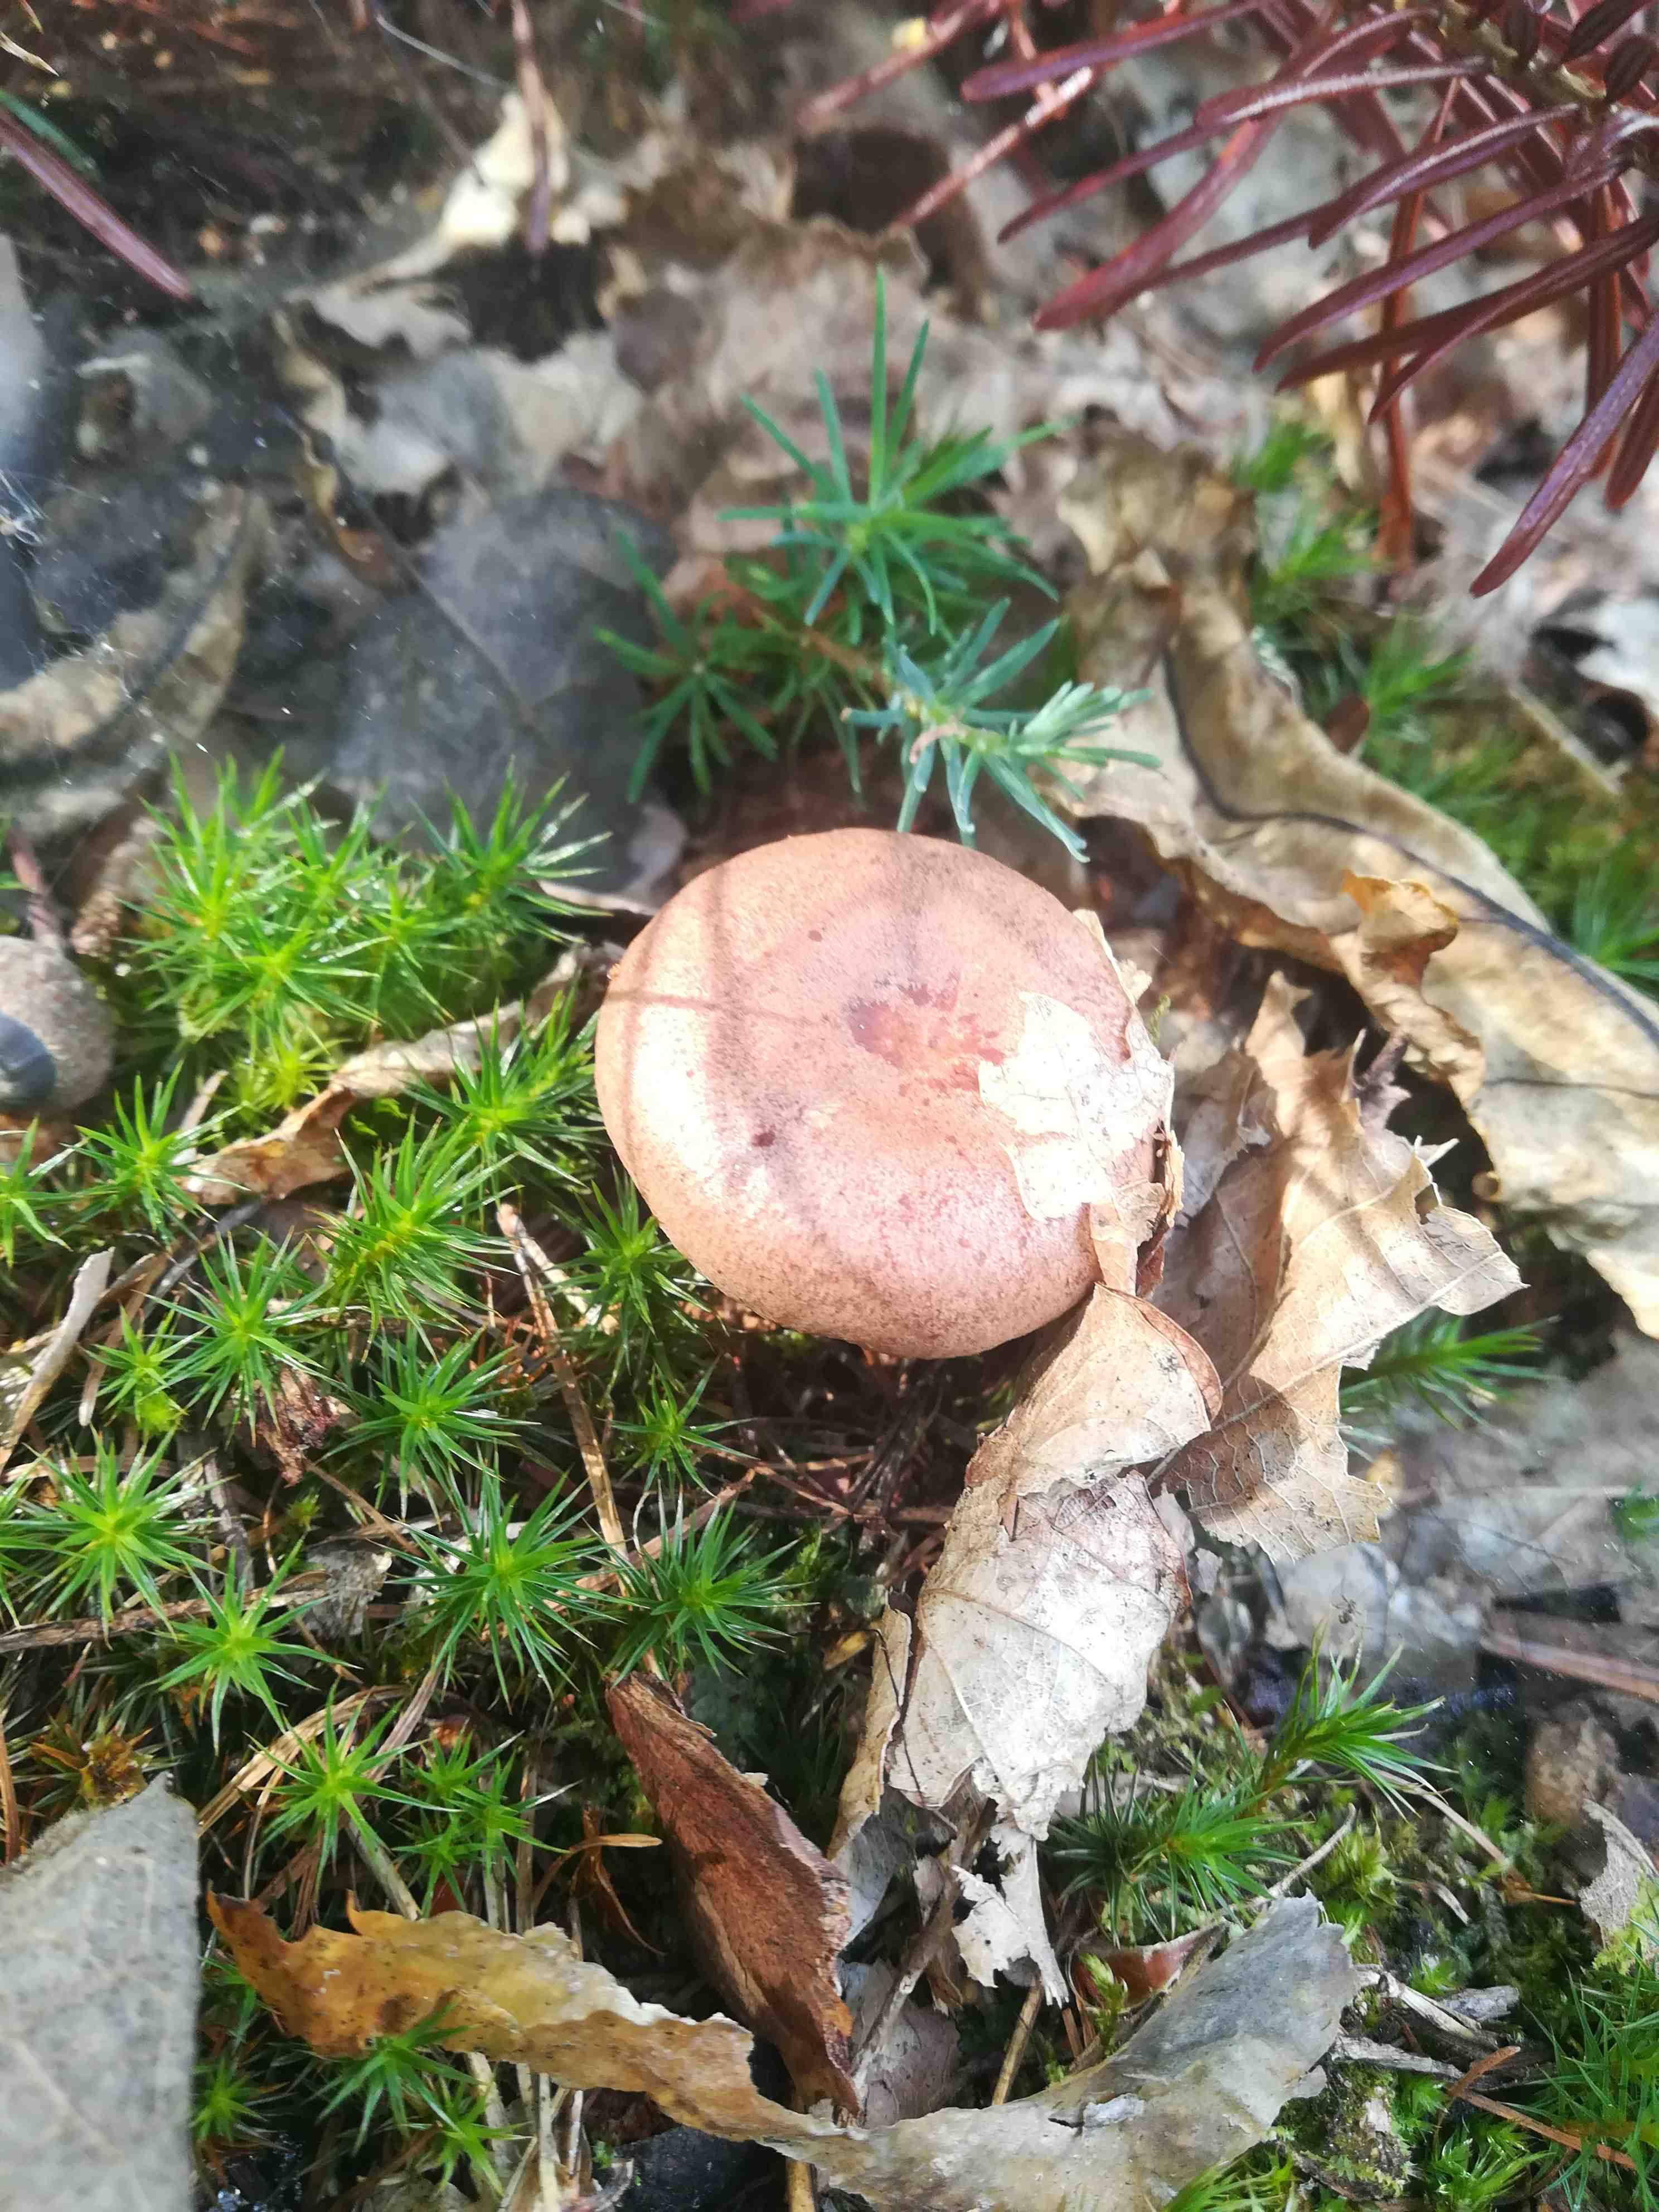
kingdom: Fungi
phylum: Basidiomycota
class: Agaricomycetes
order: Russulales
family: Russulaceae
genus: Lactarius
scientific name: Lactarius quietus
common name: ege-mælkehat
